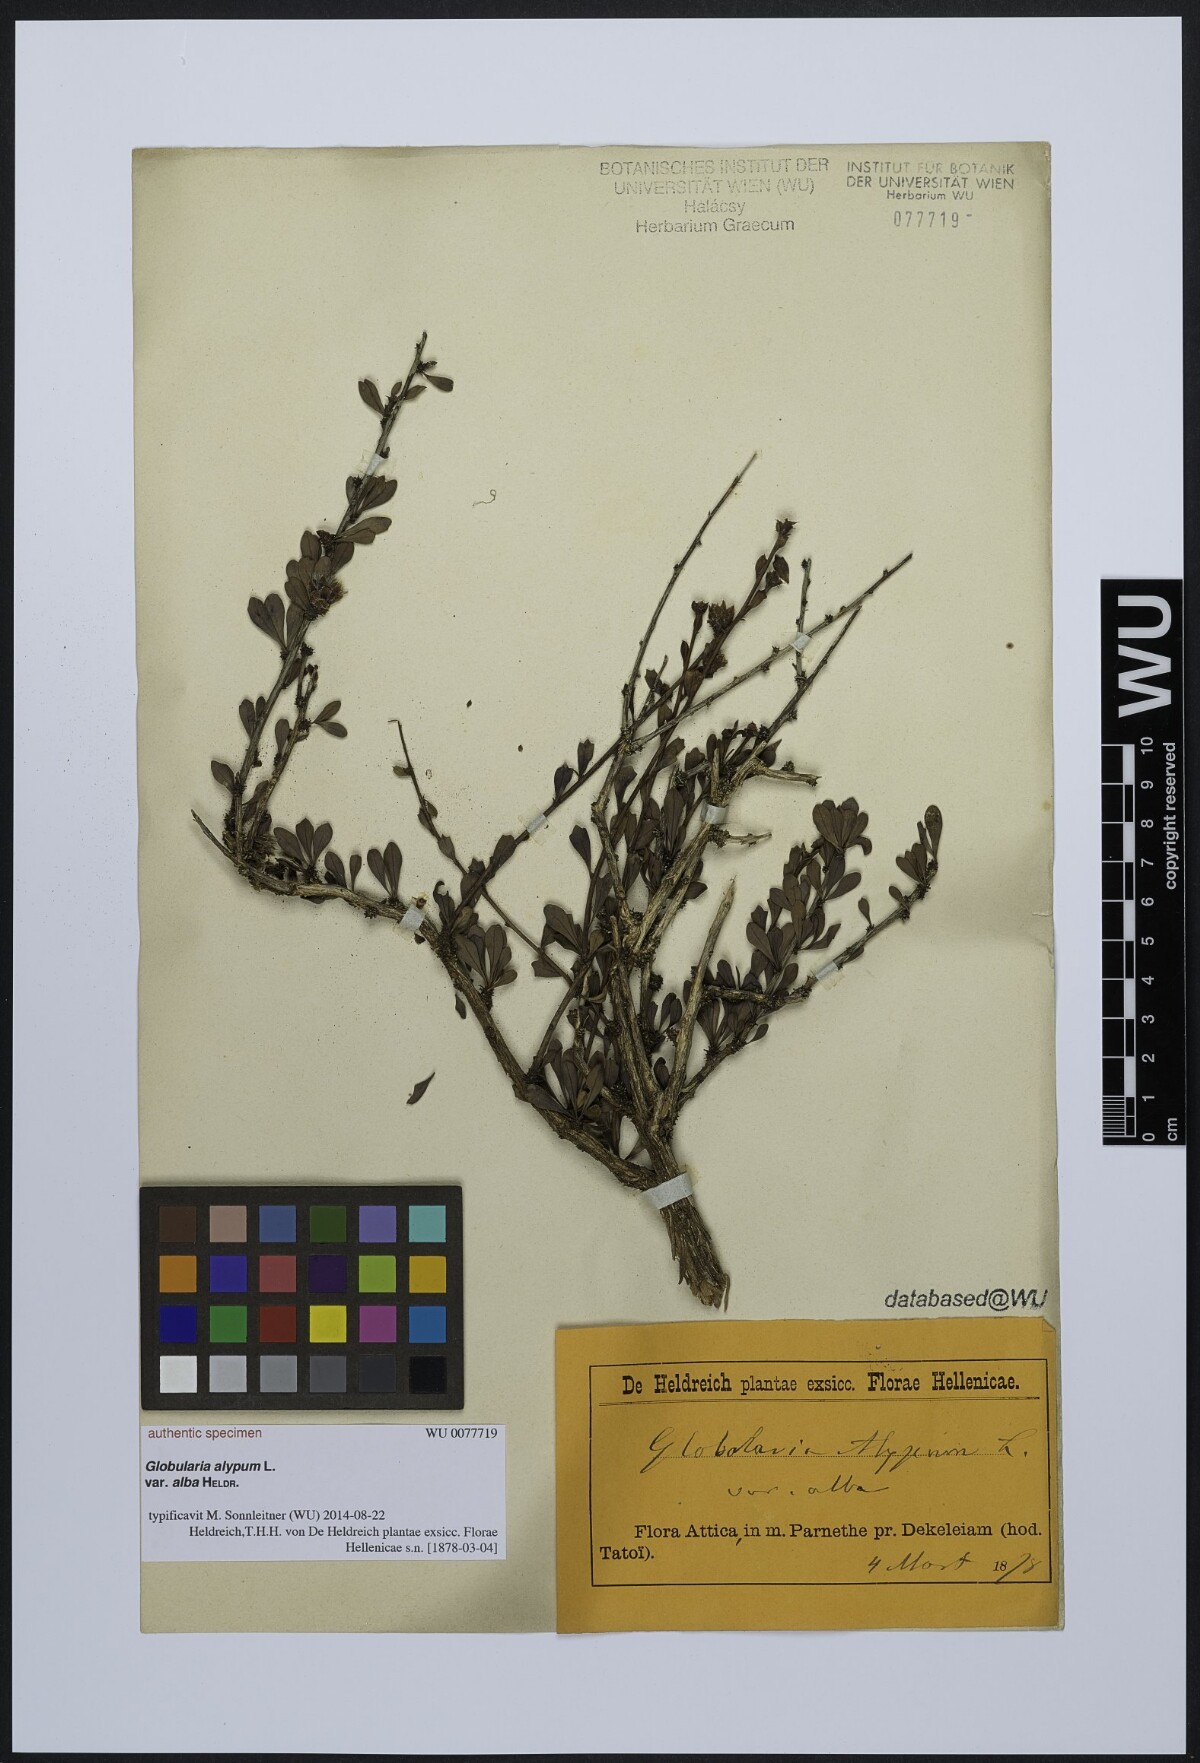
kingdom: Plantae
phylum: Tracheophyta
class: Magnoliopsida
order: Lamiales
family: Plantaginaceae
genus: Globularia
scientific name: Globularia alypum
